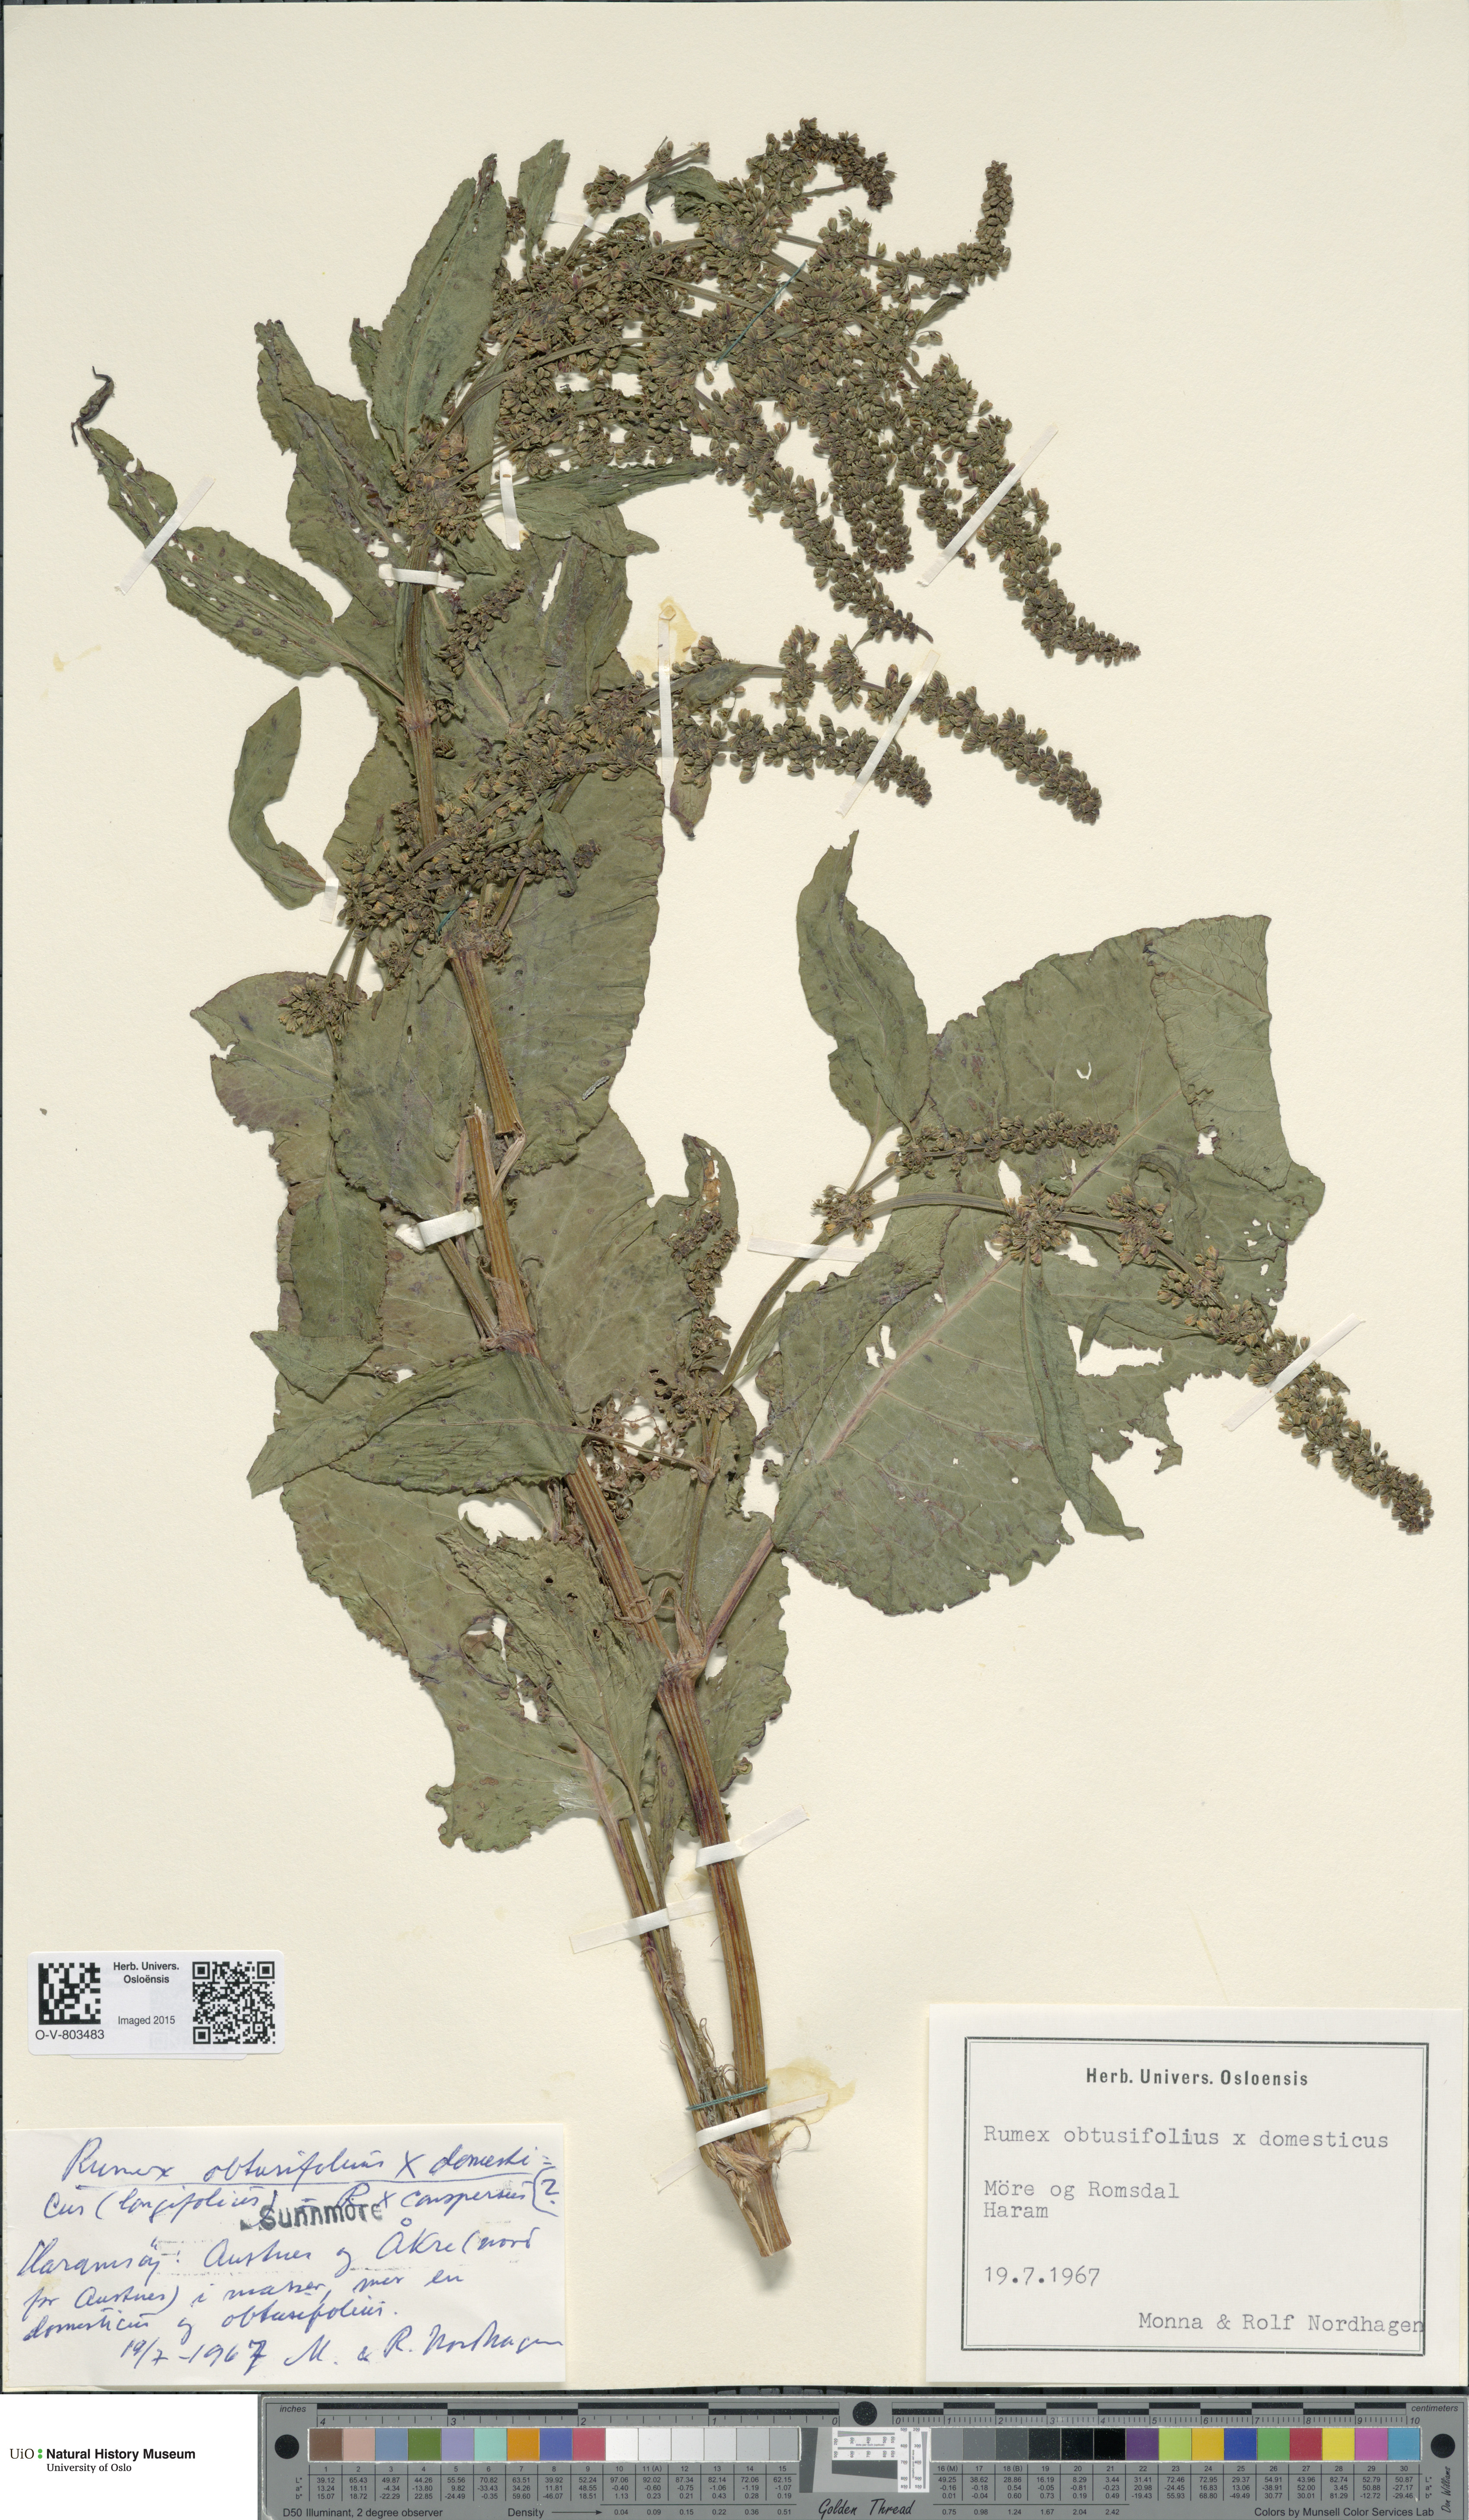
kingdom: Plantae
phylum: Tracheophyta
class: Magnoliopsida
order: Caryophyllales
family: Polygonaceae
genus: Rumex
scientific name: Rumex
